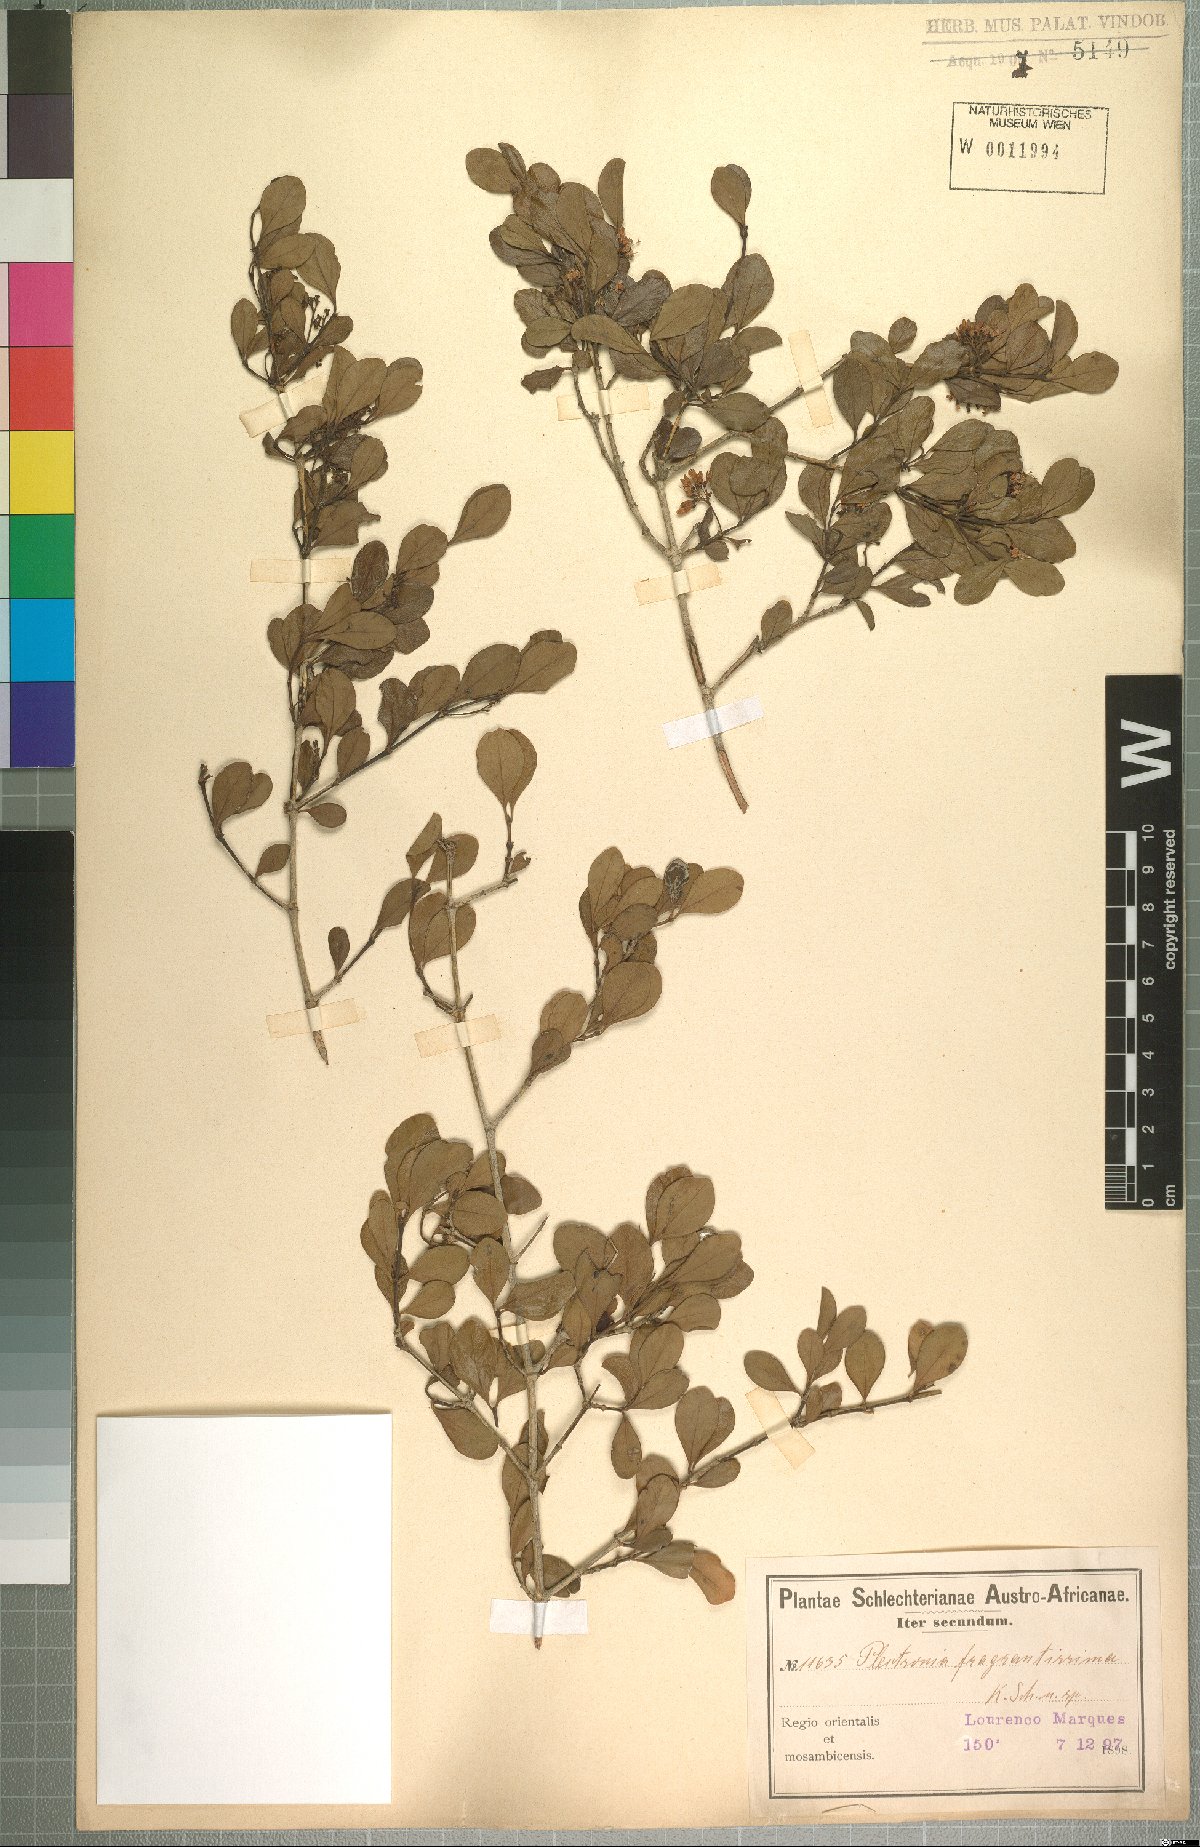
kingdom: Plantae
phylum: Tracheophyta
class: Magnoliopsida
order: Gentianales
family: Rubiaceae
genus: Psydrax
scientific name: Psydrax fragrantissimus
